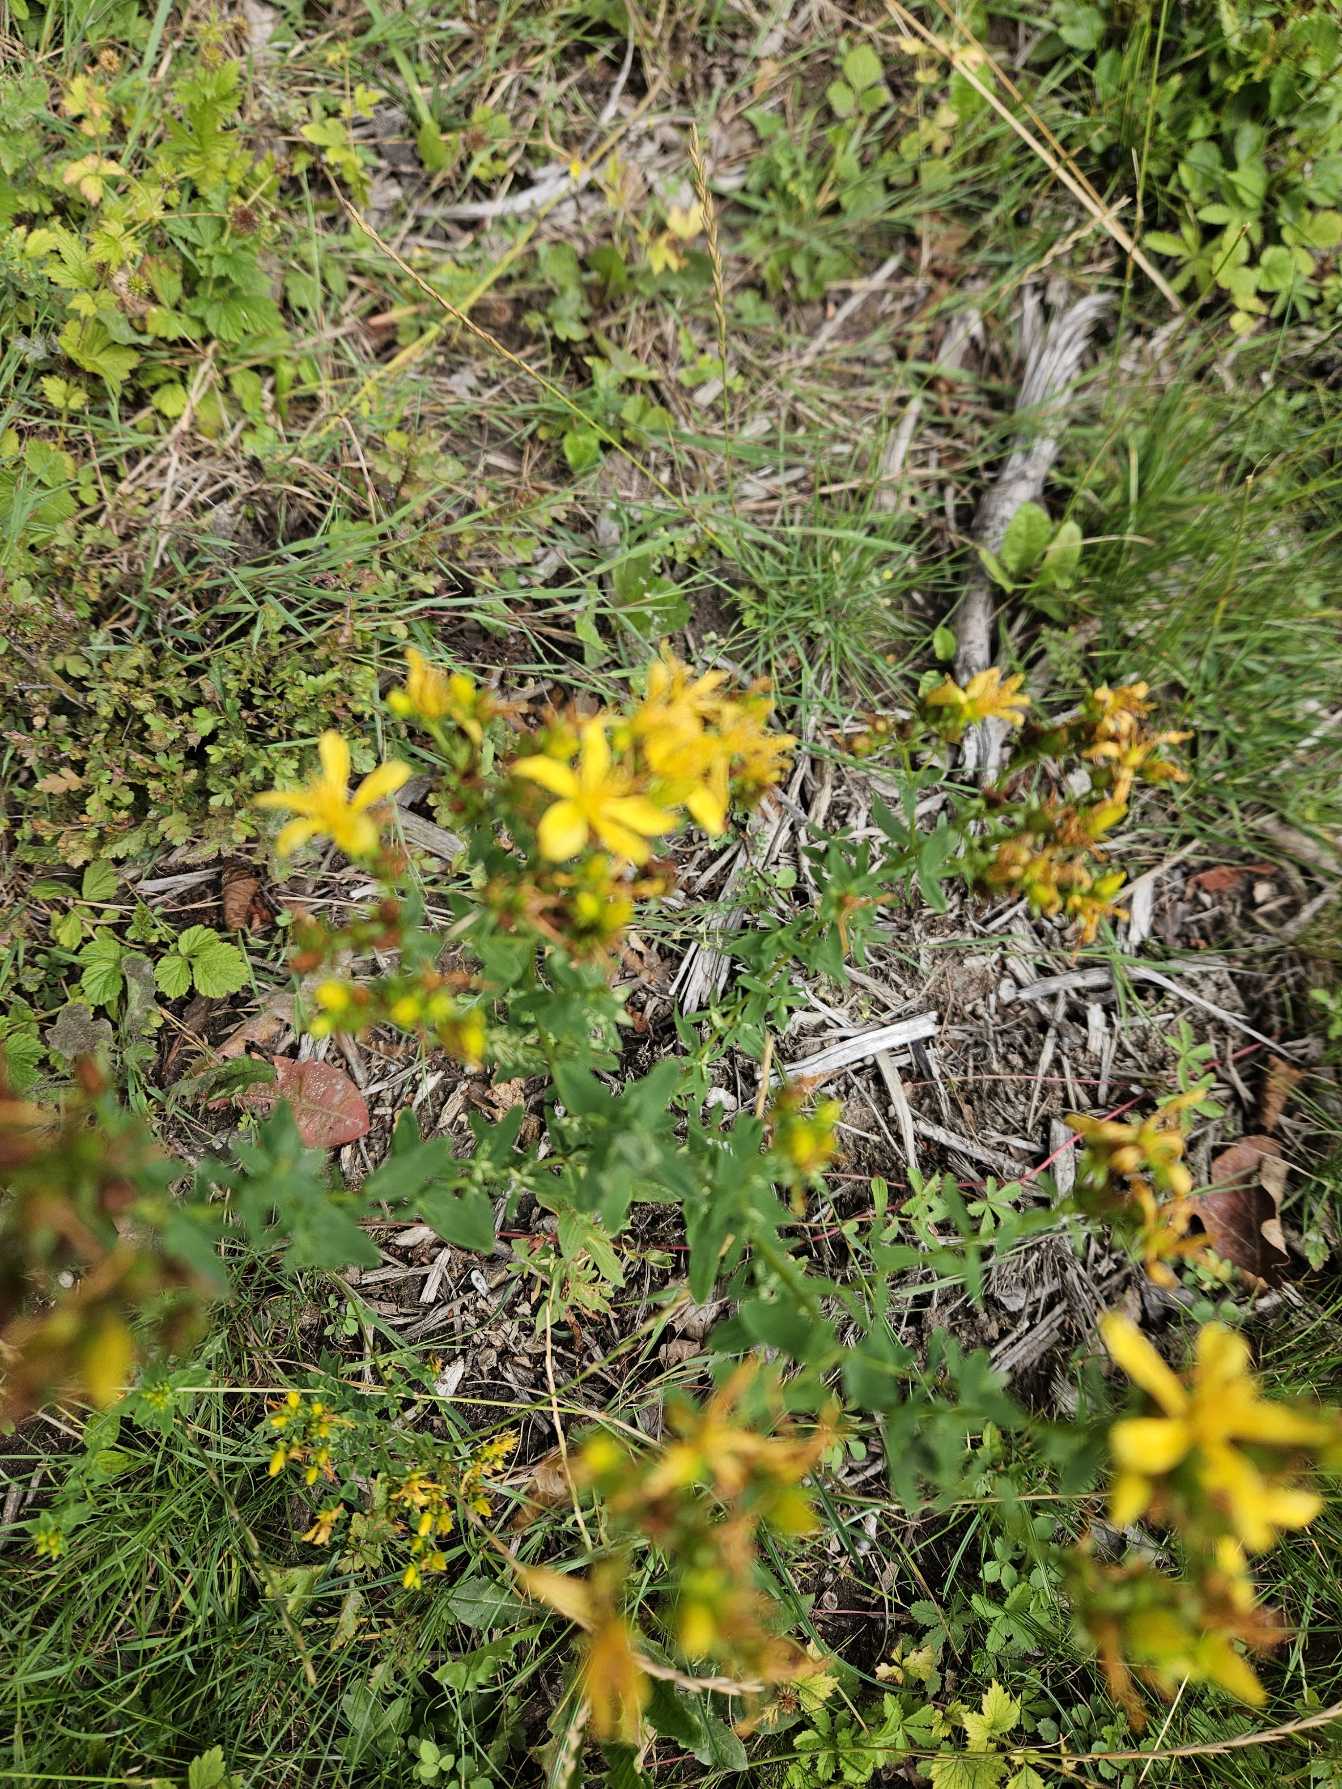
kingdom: Plantae
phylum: Tracheophyta
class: Magnoliopsida
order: Malpighiales
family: Hypericaceae
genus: Hypericum
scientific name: Hypericum perforatum
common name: Prikbladet perikon
